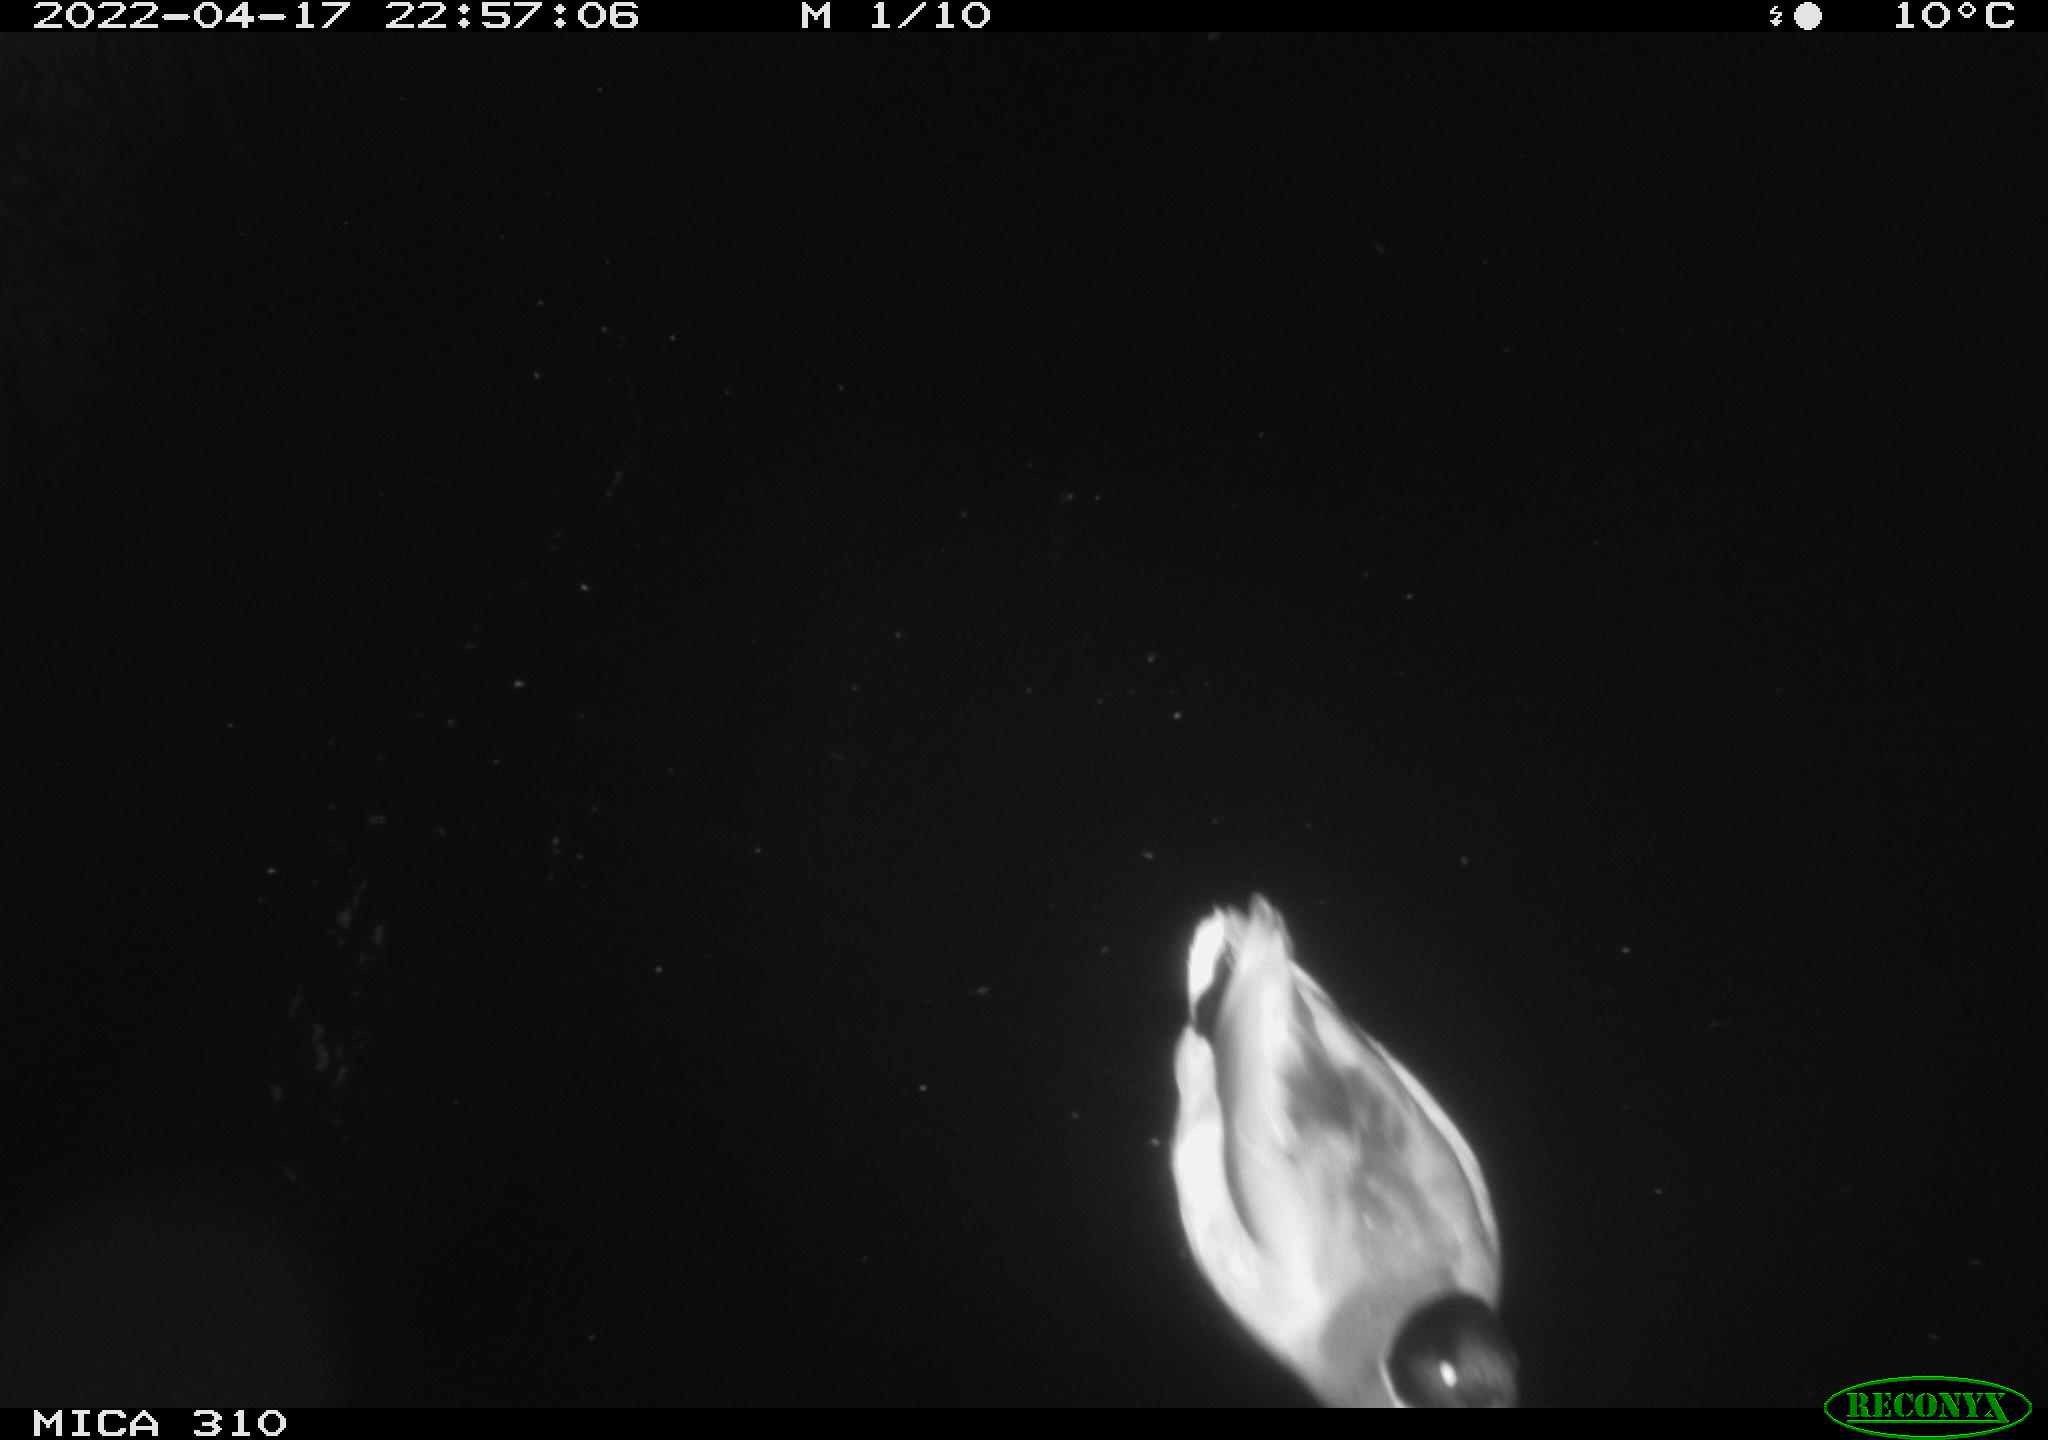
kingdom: Animalia
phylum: Chordata
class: Aves
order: Anseriformes
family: Anatidae
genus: Anas
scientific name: Anas platyrhynchos
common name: Mallard
